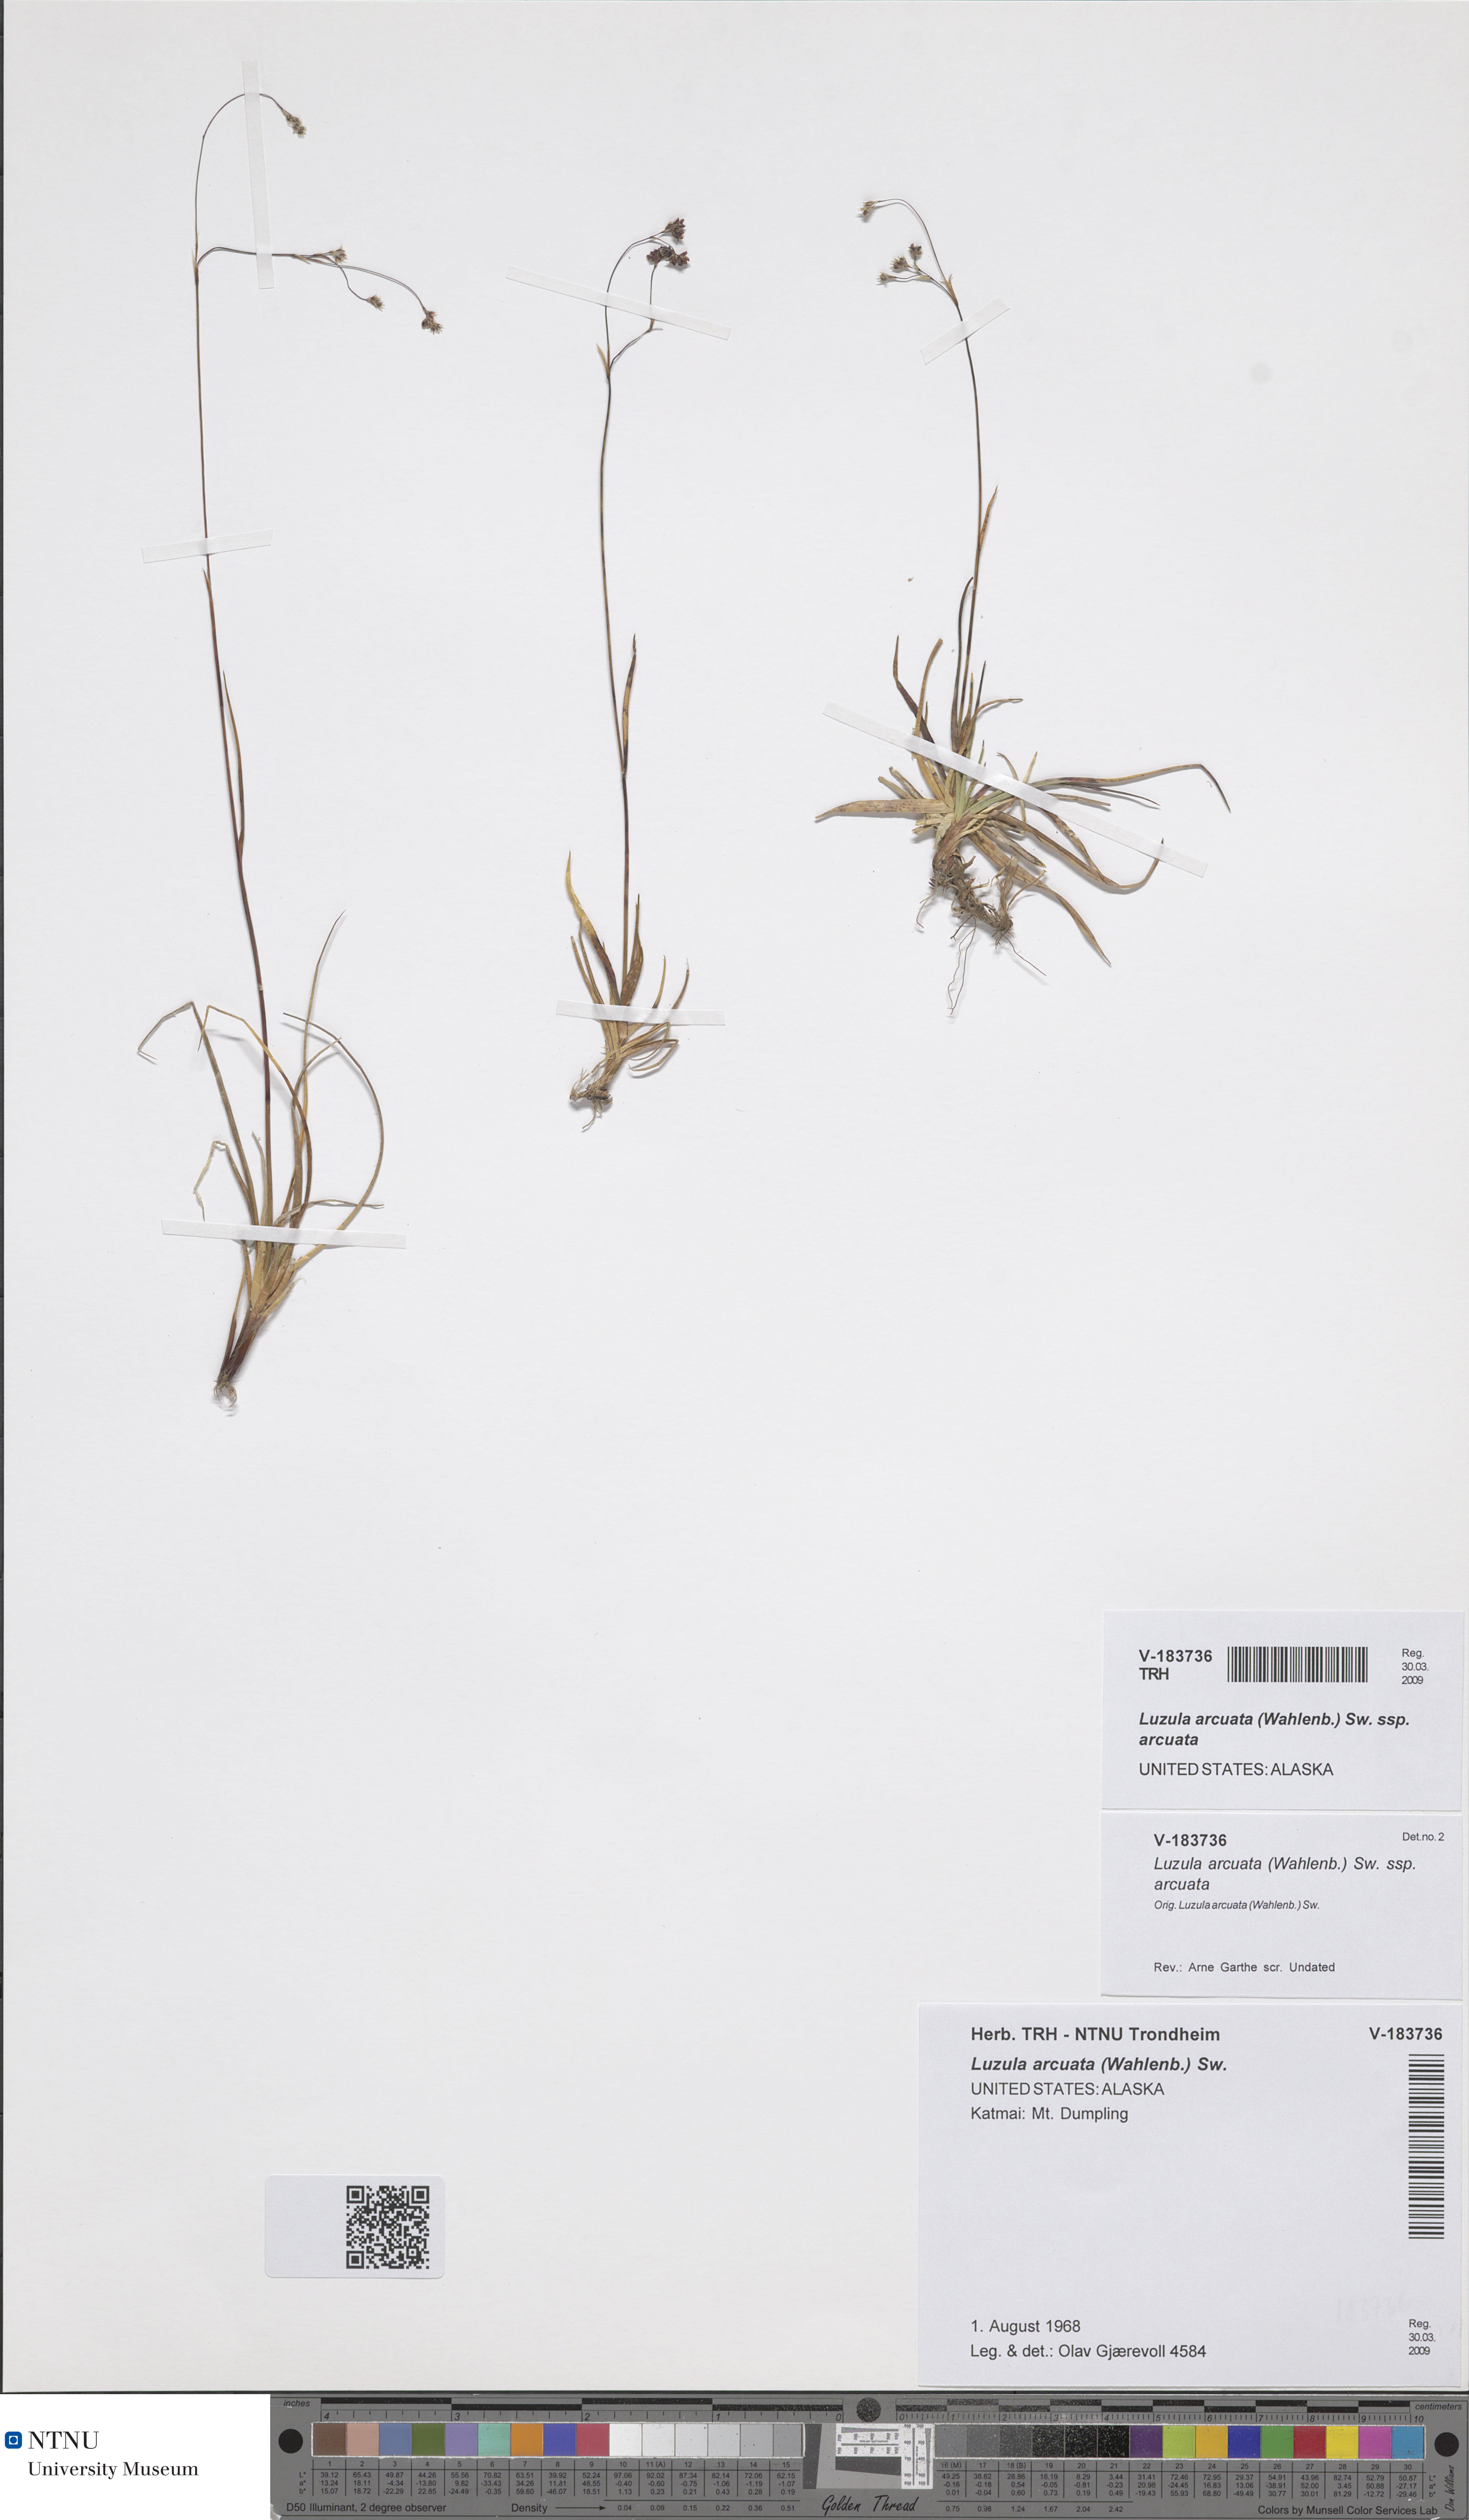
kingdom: Plantae
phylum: Tracheophyta
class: Liliopsida
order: Poales
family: Juncaceae
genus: Luzula
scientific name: Luzula arcuata
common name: Curved wood-rush
